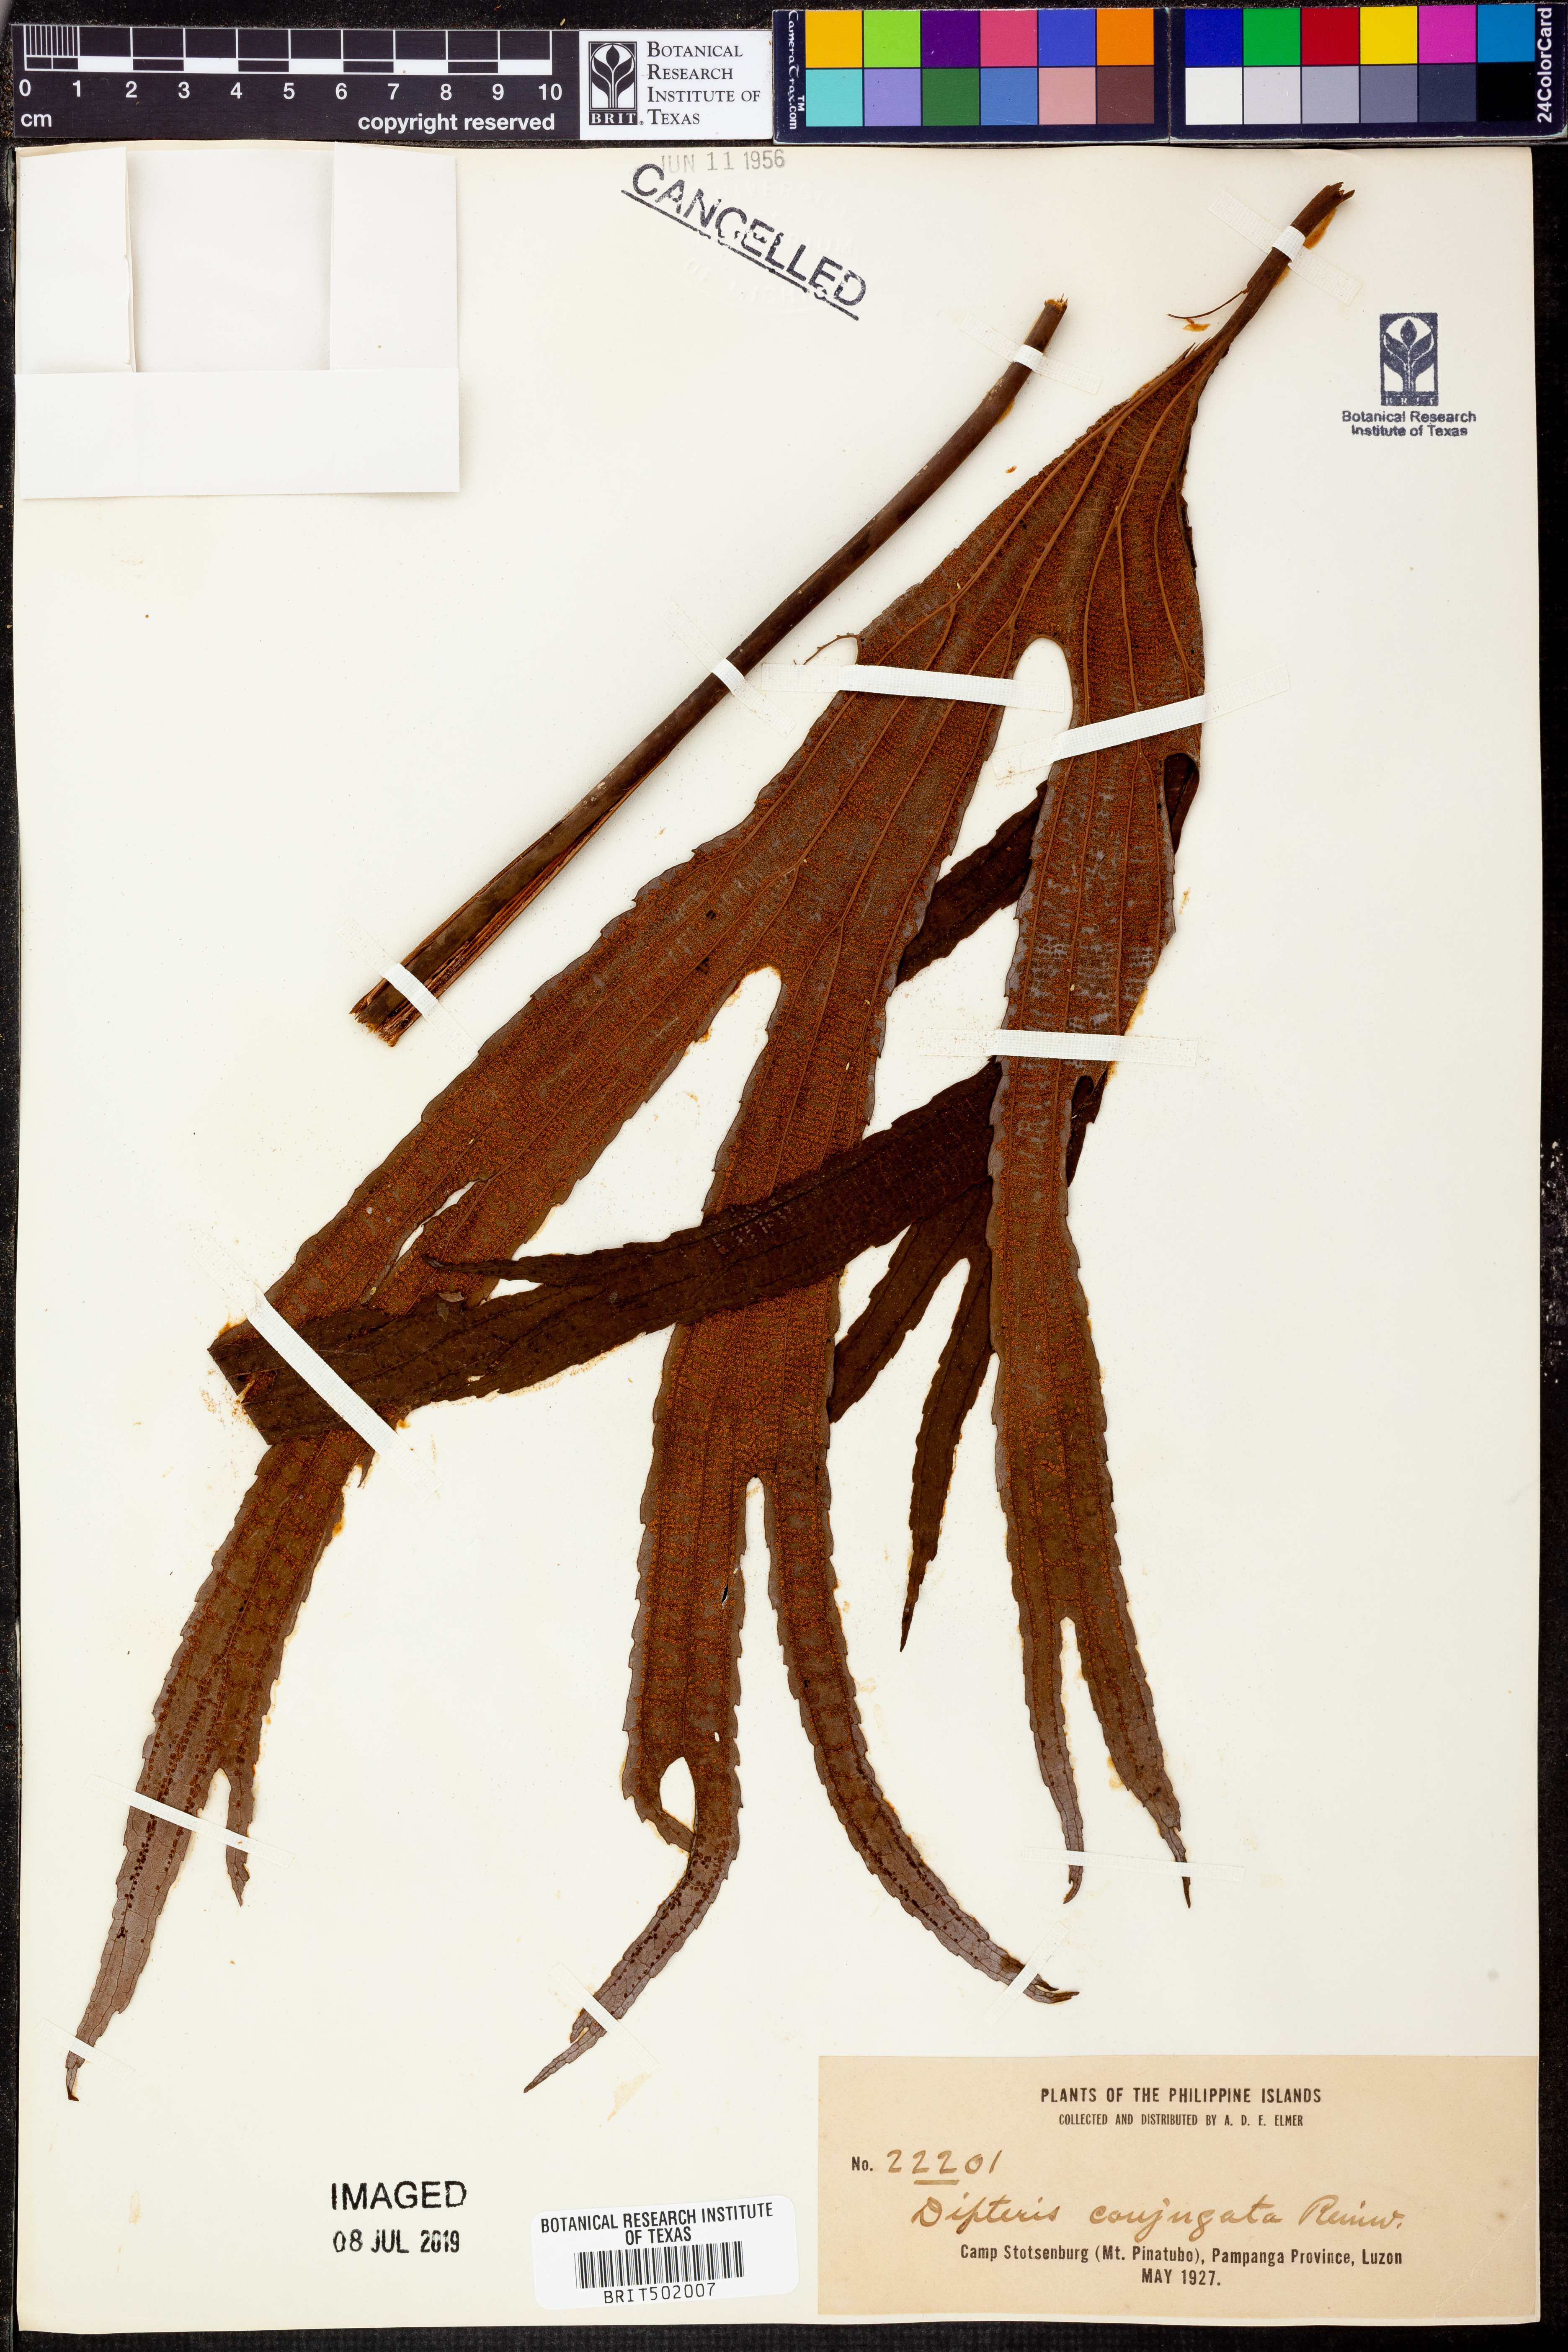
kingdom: Plantae
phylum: Tracheophyta
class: Polypodiopsida
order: Gleicheniales
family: Dipteridaceae
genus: Dipteris
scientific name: Dipteris conjugata
